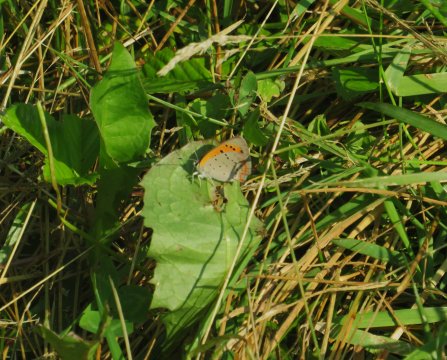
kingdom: Animalia
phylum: Arthropoda
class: Insecta
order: Lepidoptera
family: Lycaenidae
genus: Lycaena
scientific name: Lycaena phlaeas
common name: American Copper
